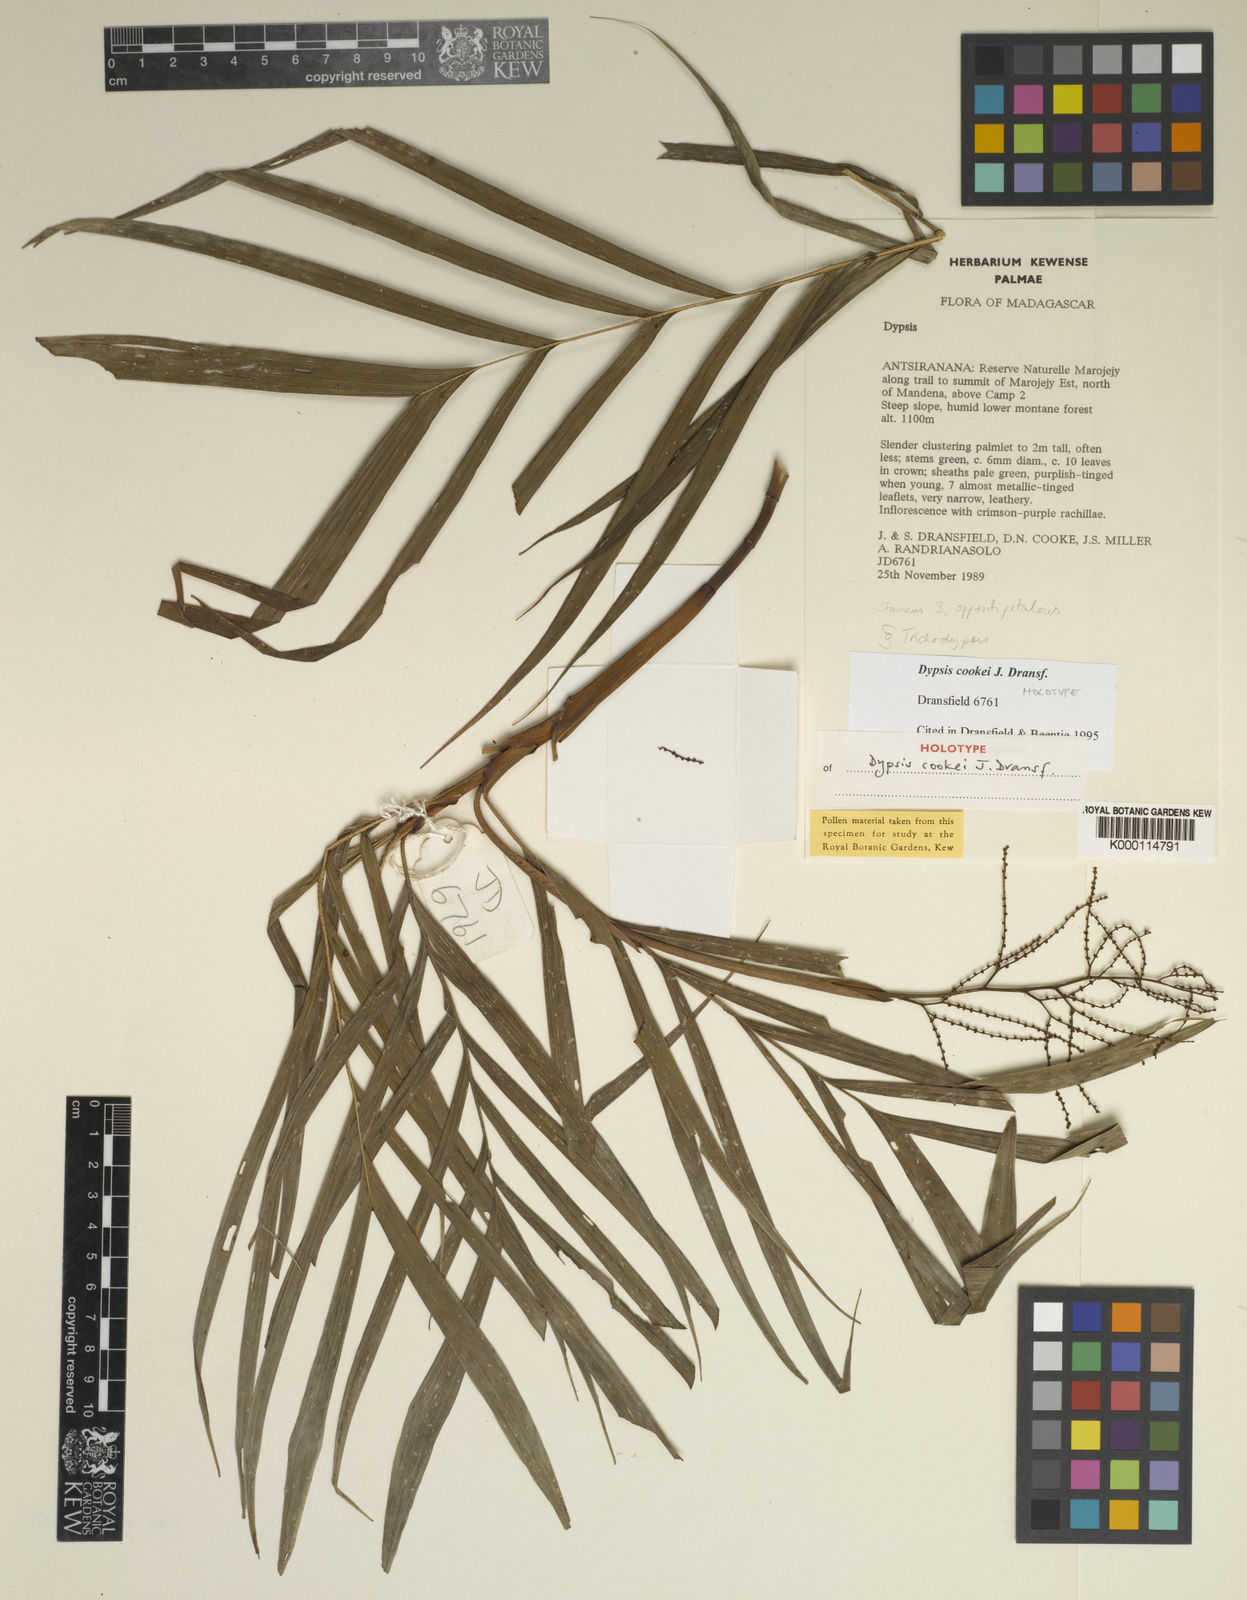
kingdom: Plantae
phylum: Tracheophyta
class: Liliopsida
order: Arecales
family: Arecaceae
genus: Dypsis
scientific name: Dypsis cookei
